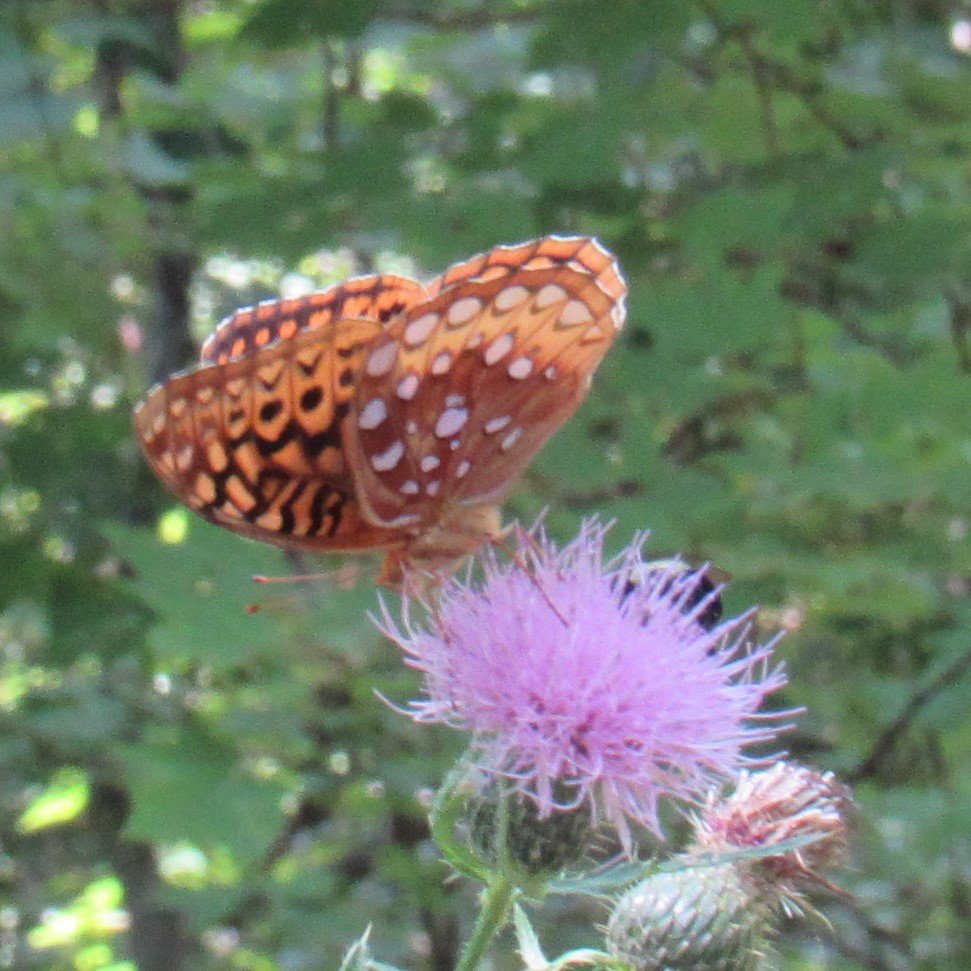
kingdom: Animalia
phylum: Arthropoda
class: Insecta
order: Lepidoptera
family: Nymphalidae
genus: Speyeria
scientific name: Speyeria cybele
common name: Great Spangled Fritillary
